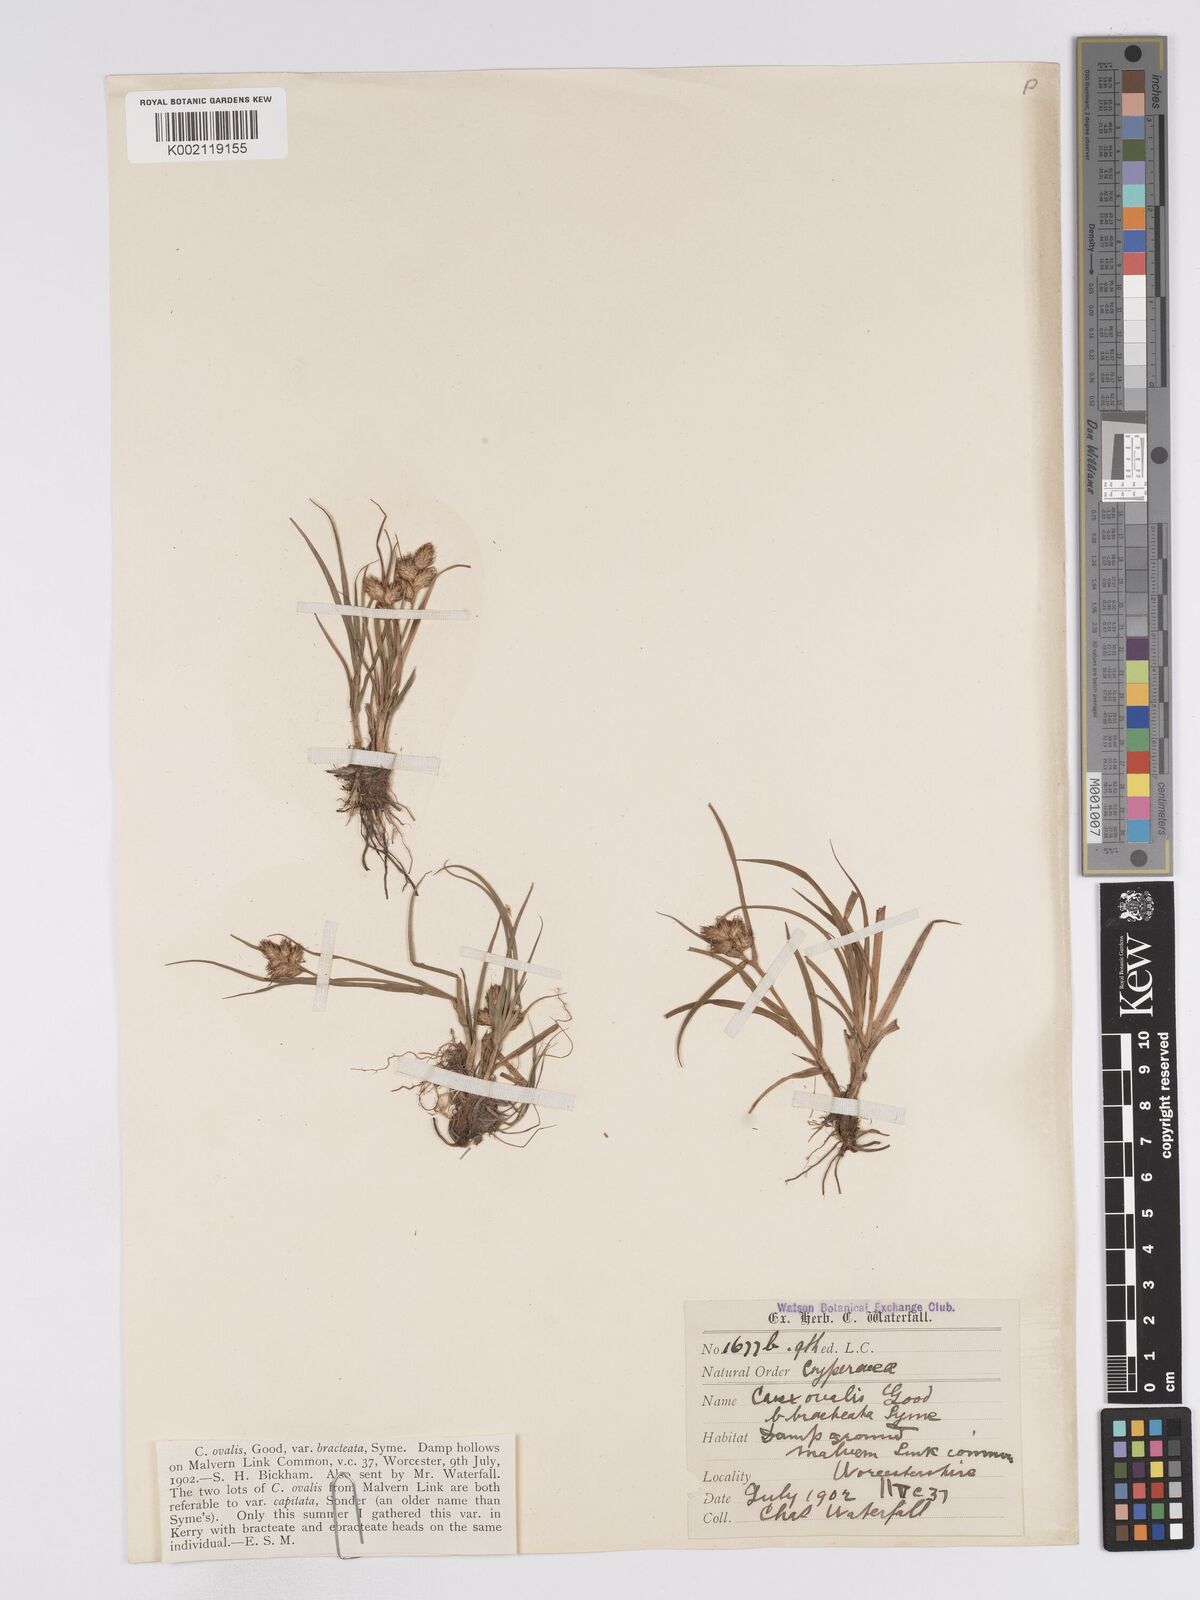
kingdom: Plantae
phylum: Tracheophyta
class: Liliopsida
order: Poales
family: Cyperaceae
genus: Carex
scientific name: Carex leporina
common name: Oval sedge
